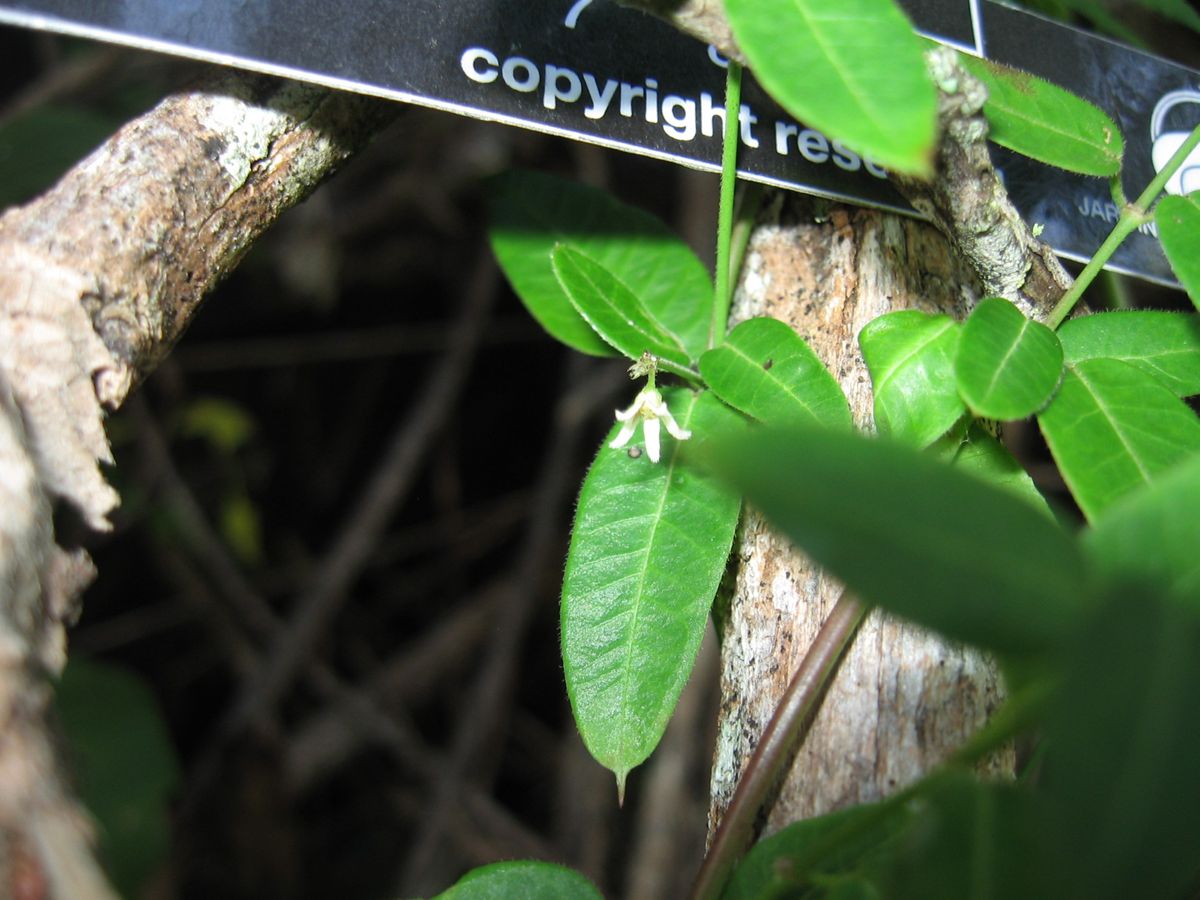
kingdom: Plantae
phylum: Tracheophyta
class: Magnoliopsida
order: Gentianales
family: Apocynaceae
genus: Metastelma
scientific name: Metastelma schlechtendalii
